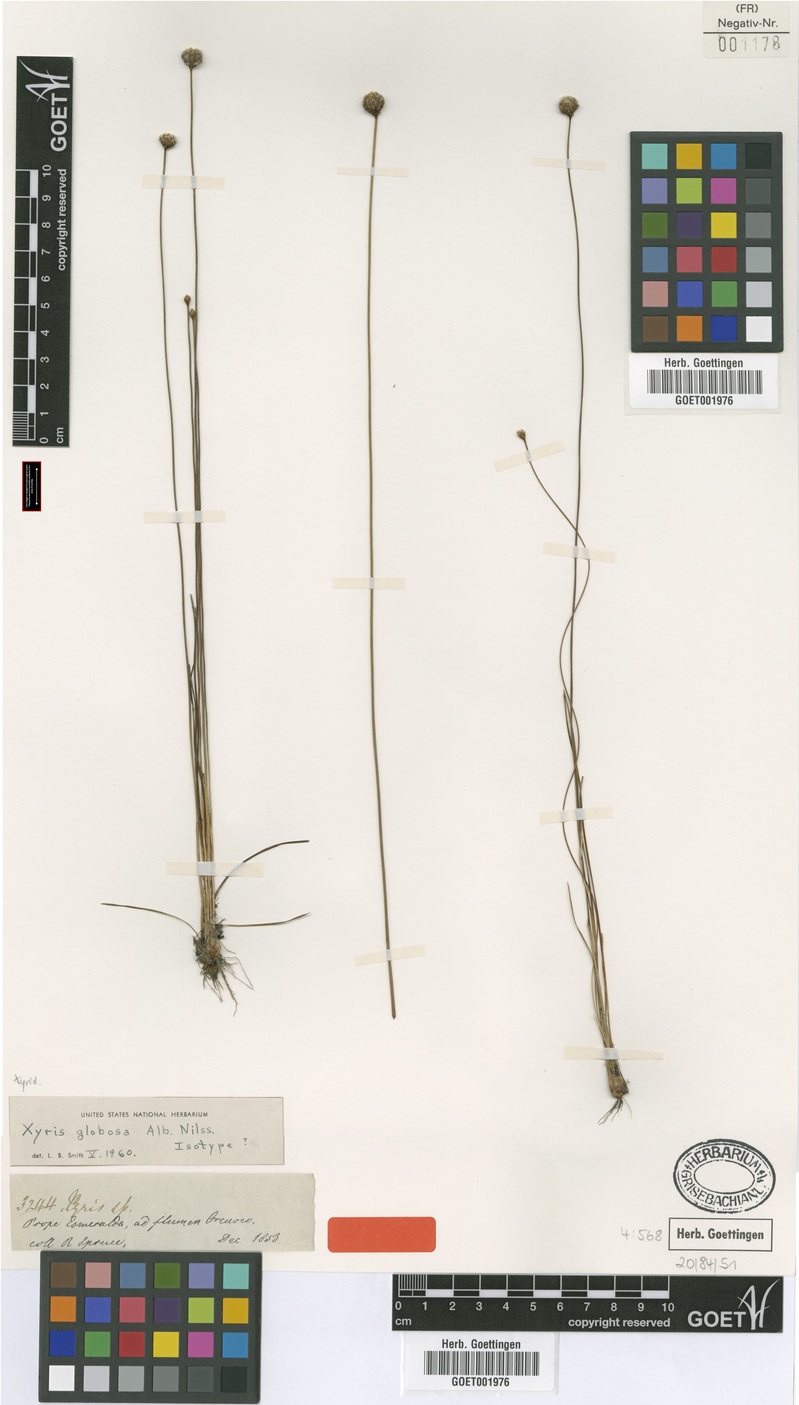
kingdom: Plantae
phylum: Tracheophyta
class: Liliopsida
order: Poales
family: Xyridaceae
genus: Xyris
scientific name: Xyris globosa
